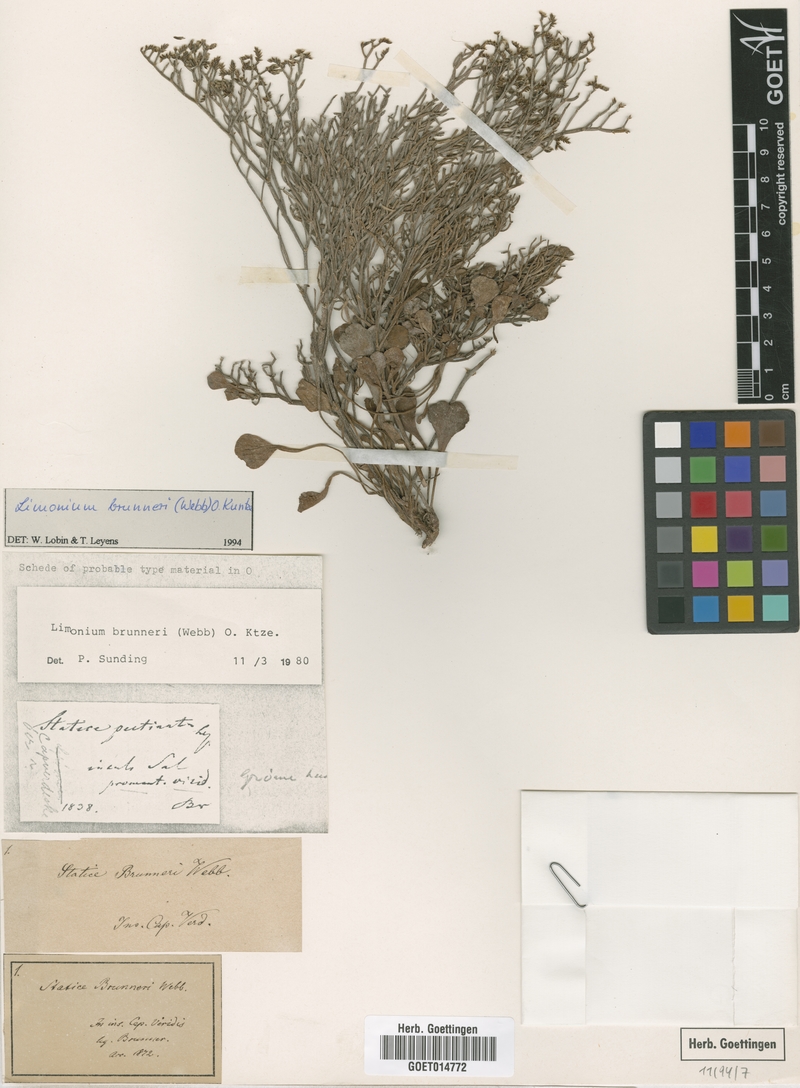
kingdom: Plantae
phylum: Tracheophyta
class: Magnoliopsida
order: Caryophyllales
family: Plumbaginaceae
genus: Limonium
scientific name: Limonium brunneri
